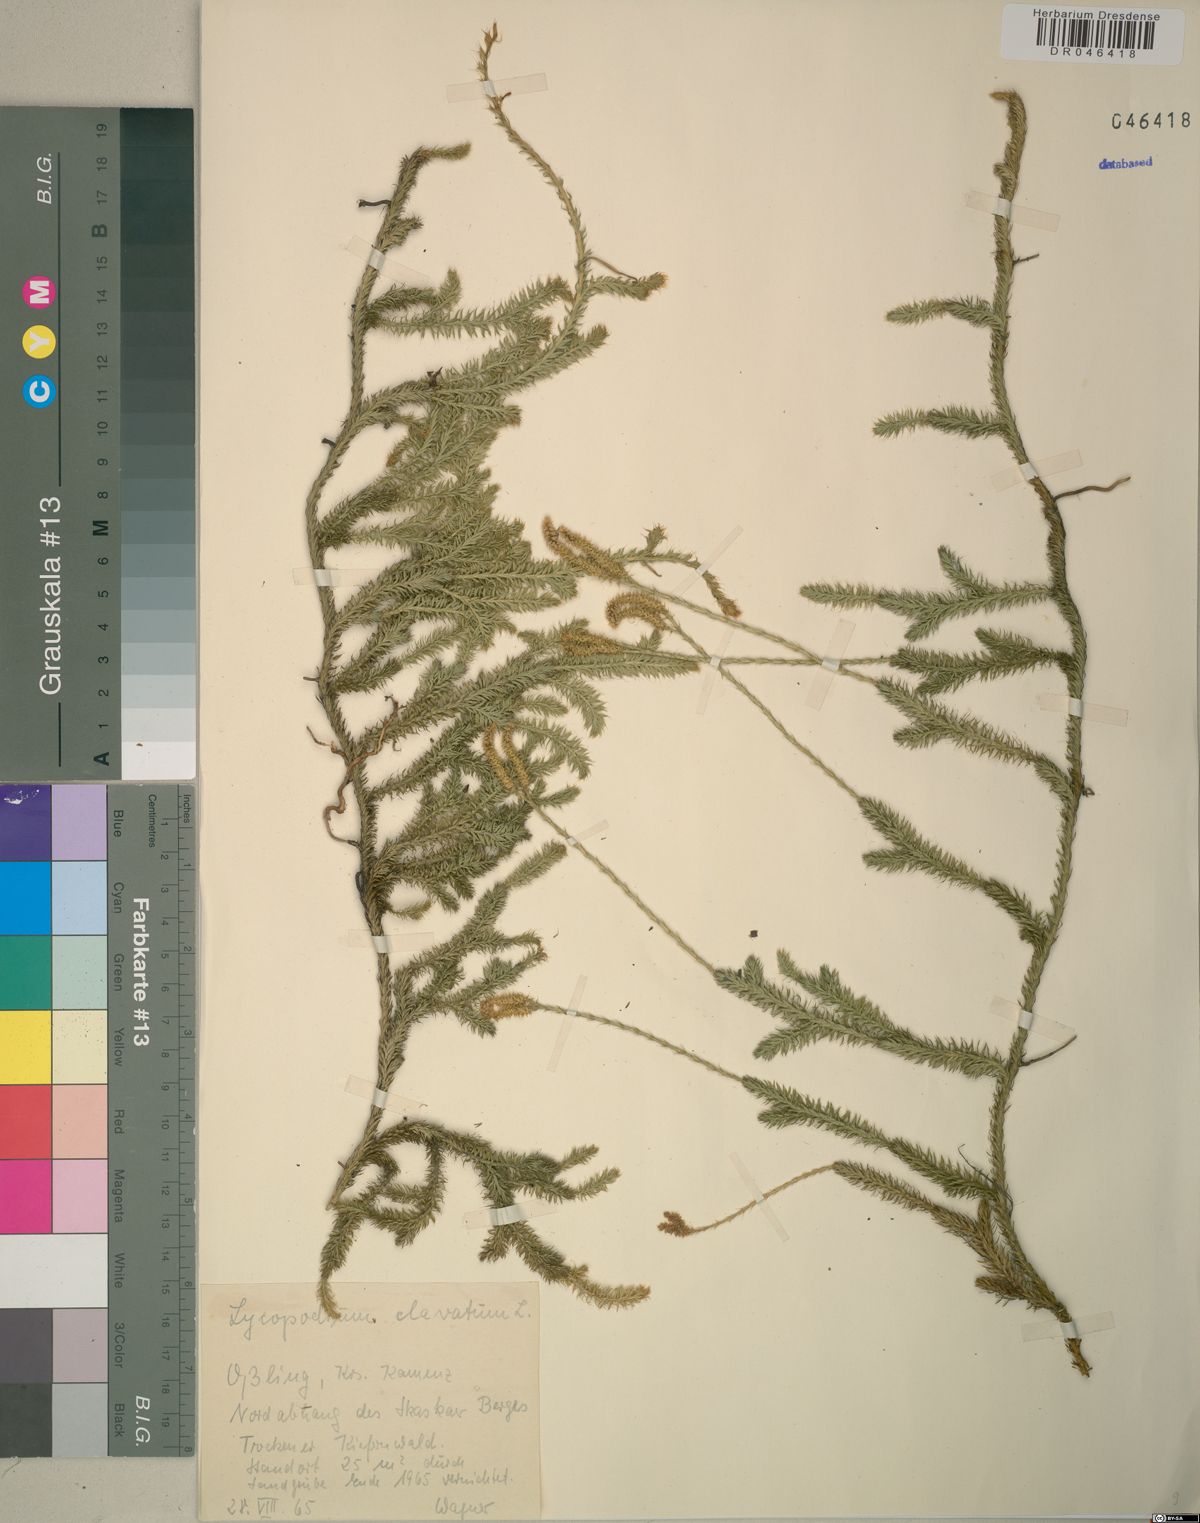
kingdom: Plantae
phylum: Tracheophyta
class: Lycopodiopsida
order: Lycopodiales
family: Lycopodiaceae
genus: Lycopodium
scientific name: Lycopodium clavatum
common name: Stag's-horn clubmoss
